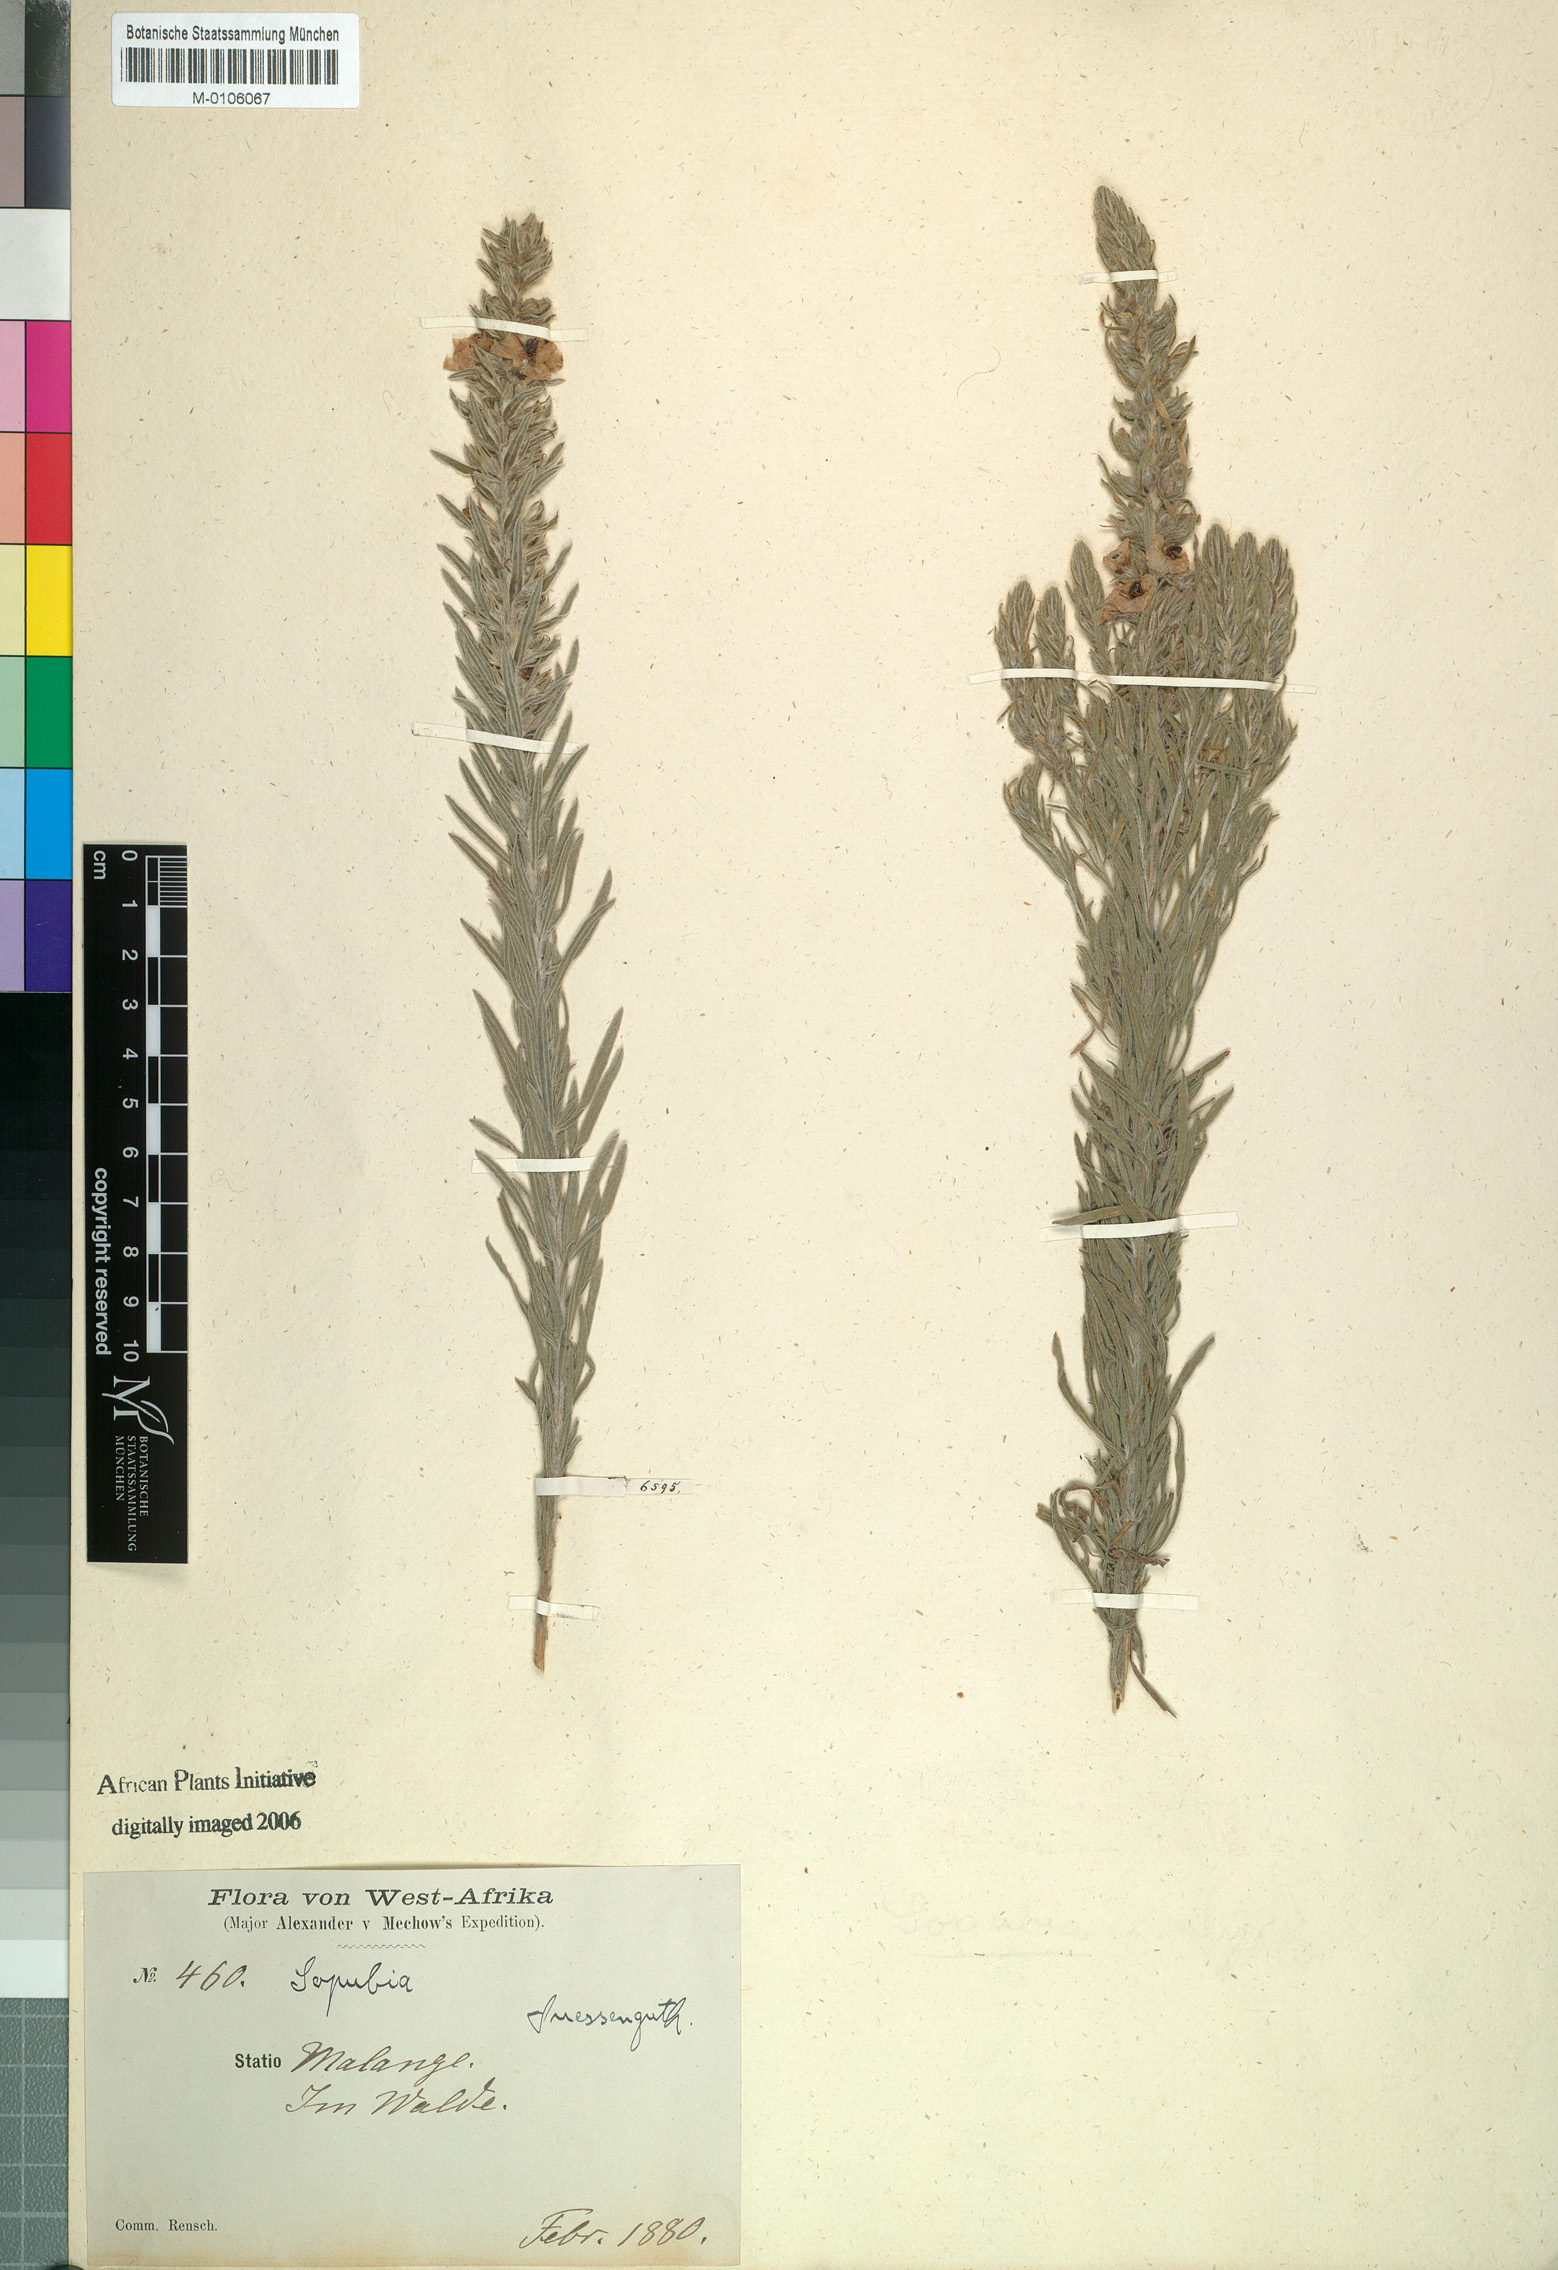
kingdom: Plantae
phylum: Tracheophyta
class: Magnoliopsida
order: Lamiales
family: Orobanchaceae
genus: Sopubia
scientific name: Sopubia lanata
